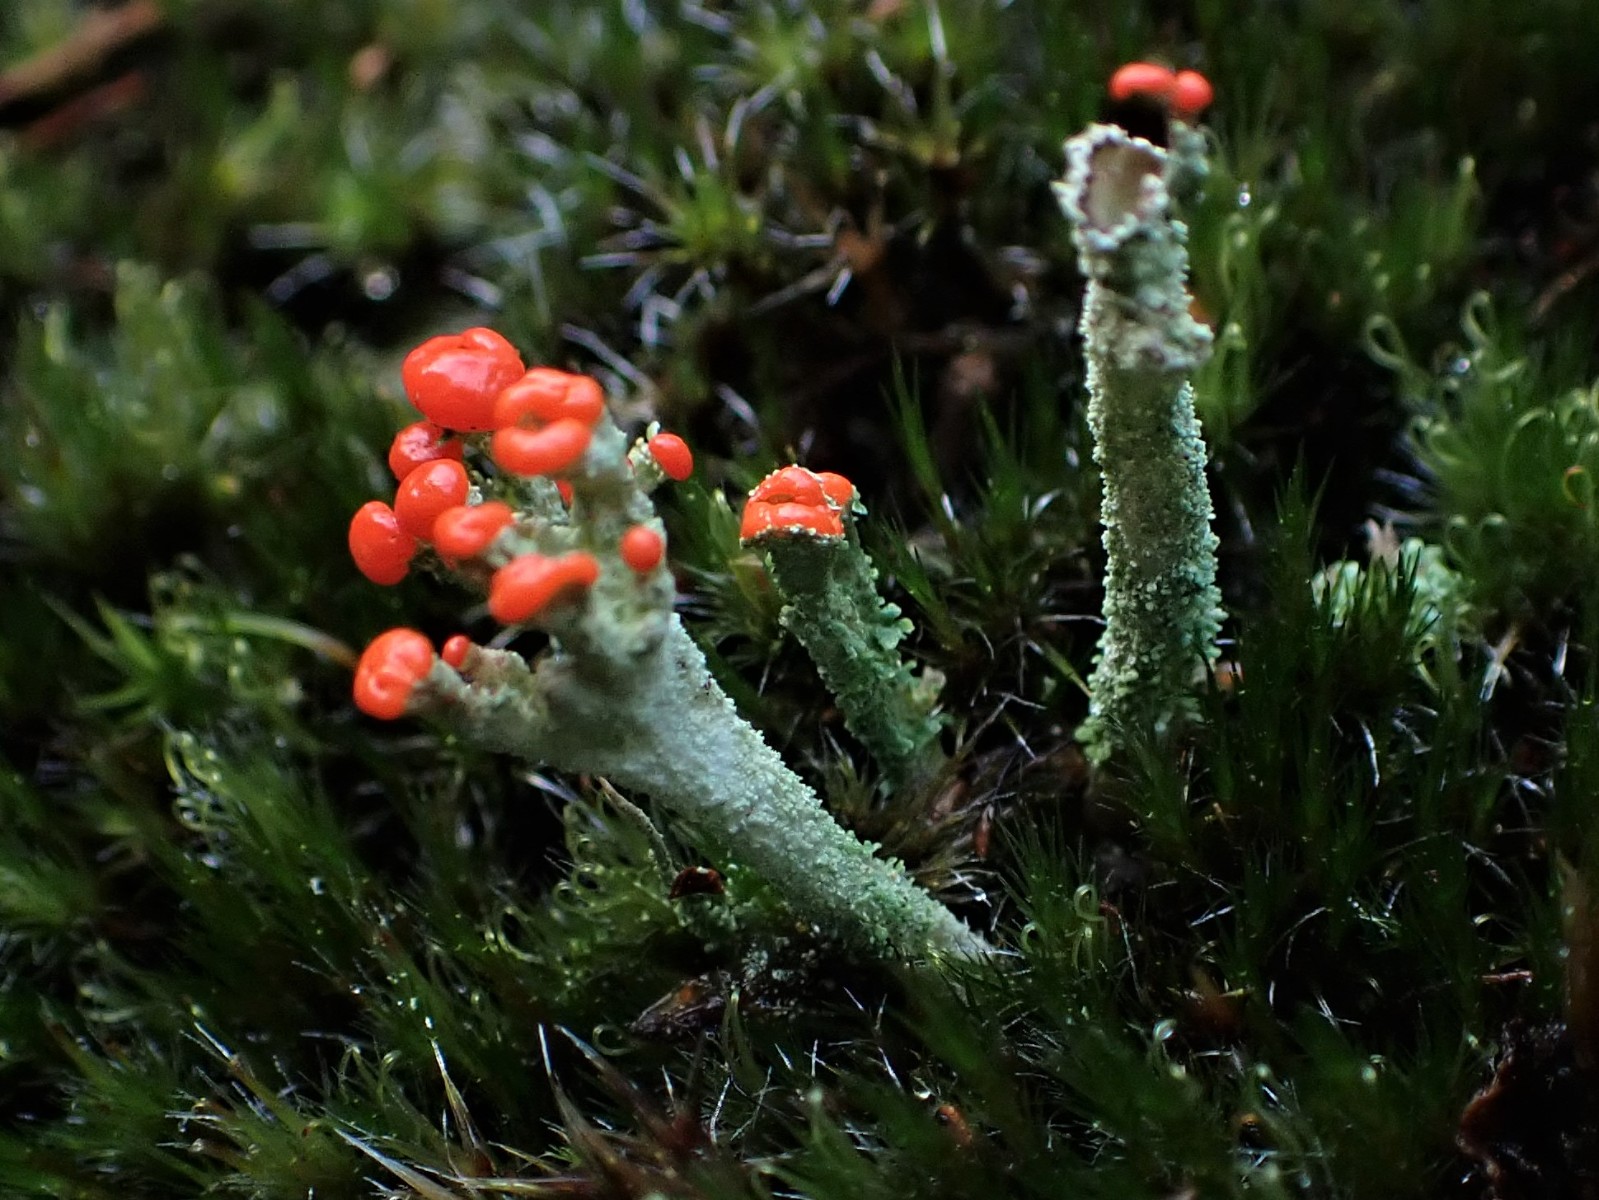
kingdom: Fungi
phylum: Ascomycota
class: Lecanoromycetes
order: Lecanorales
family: Cladoniaceae
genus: Cladonia
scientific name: Cladonia floerkeana
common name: lakrød bægerlav
